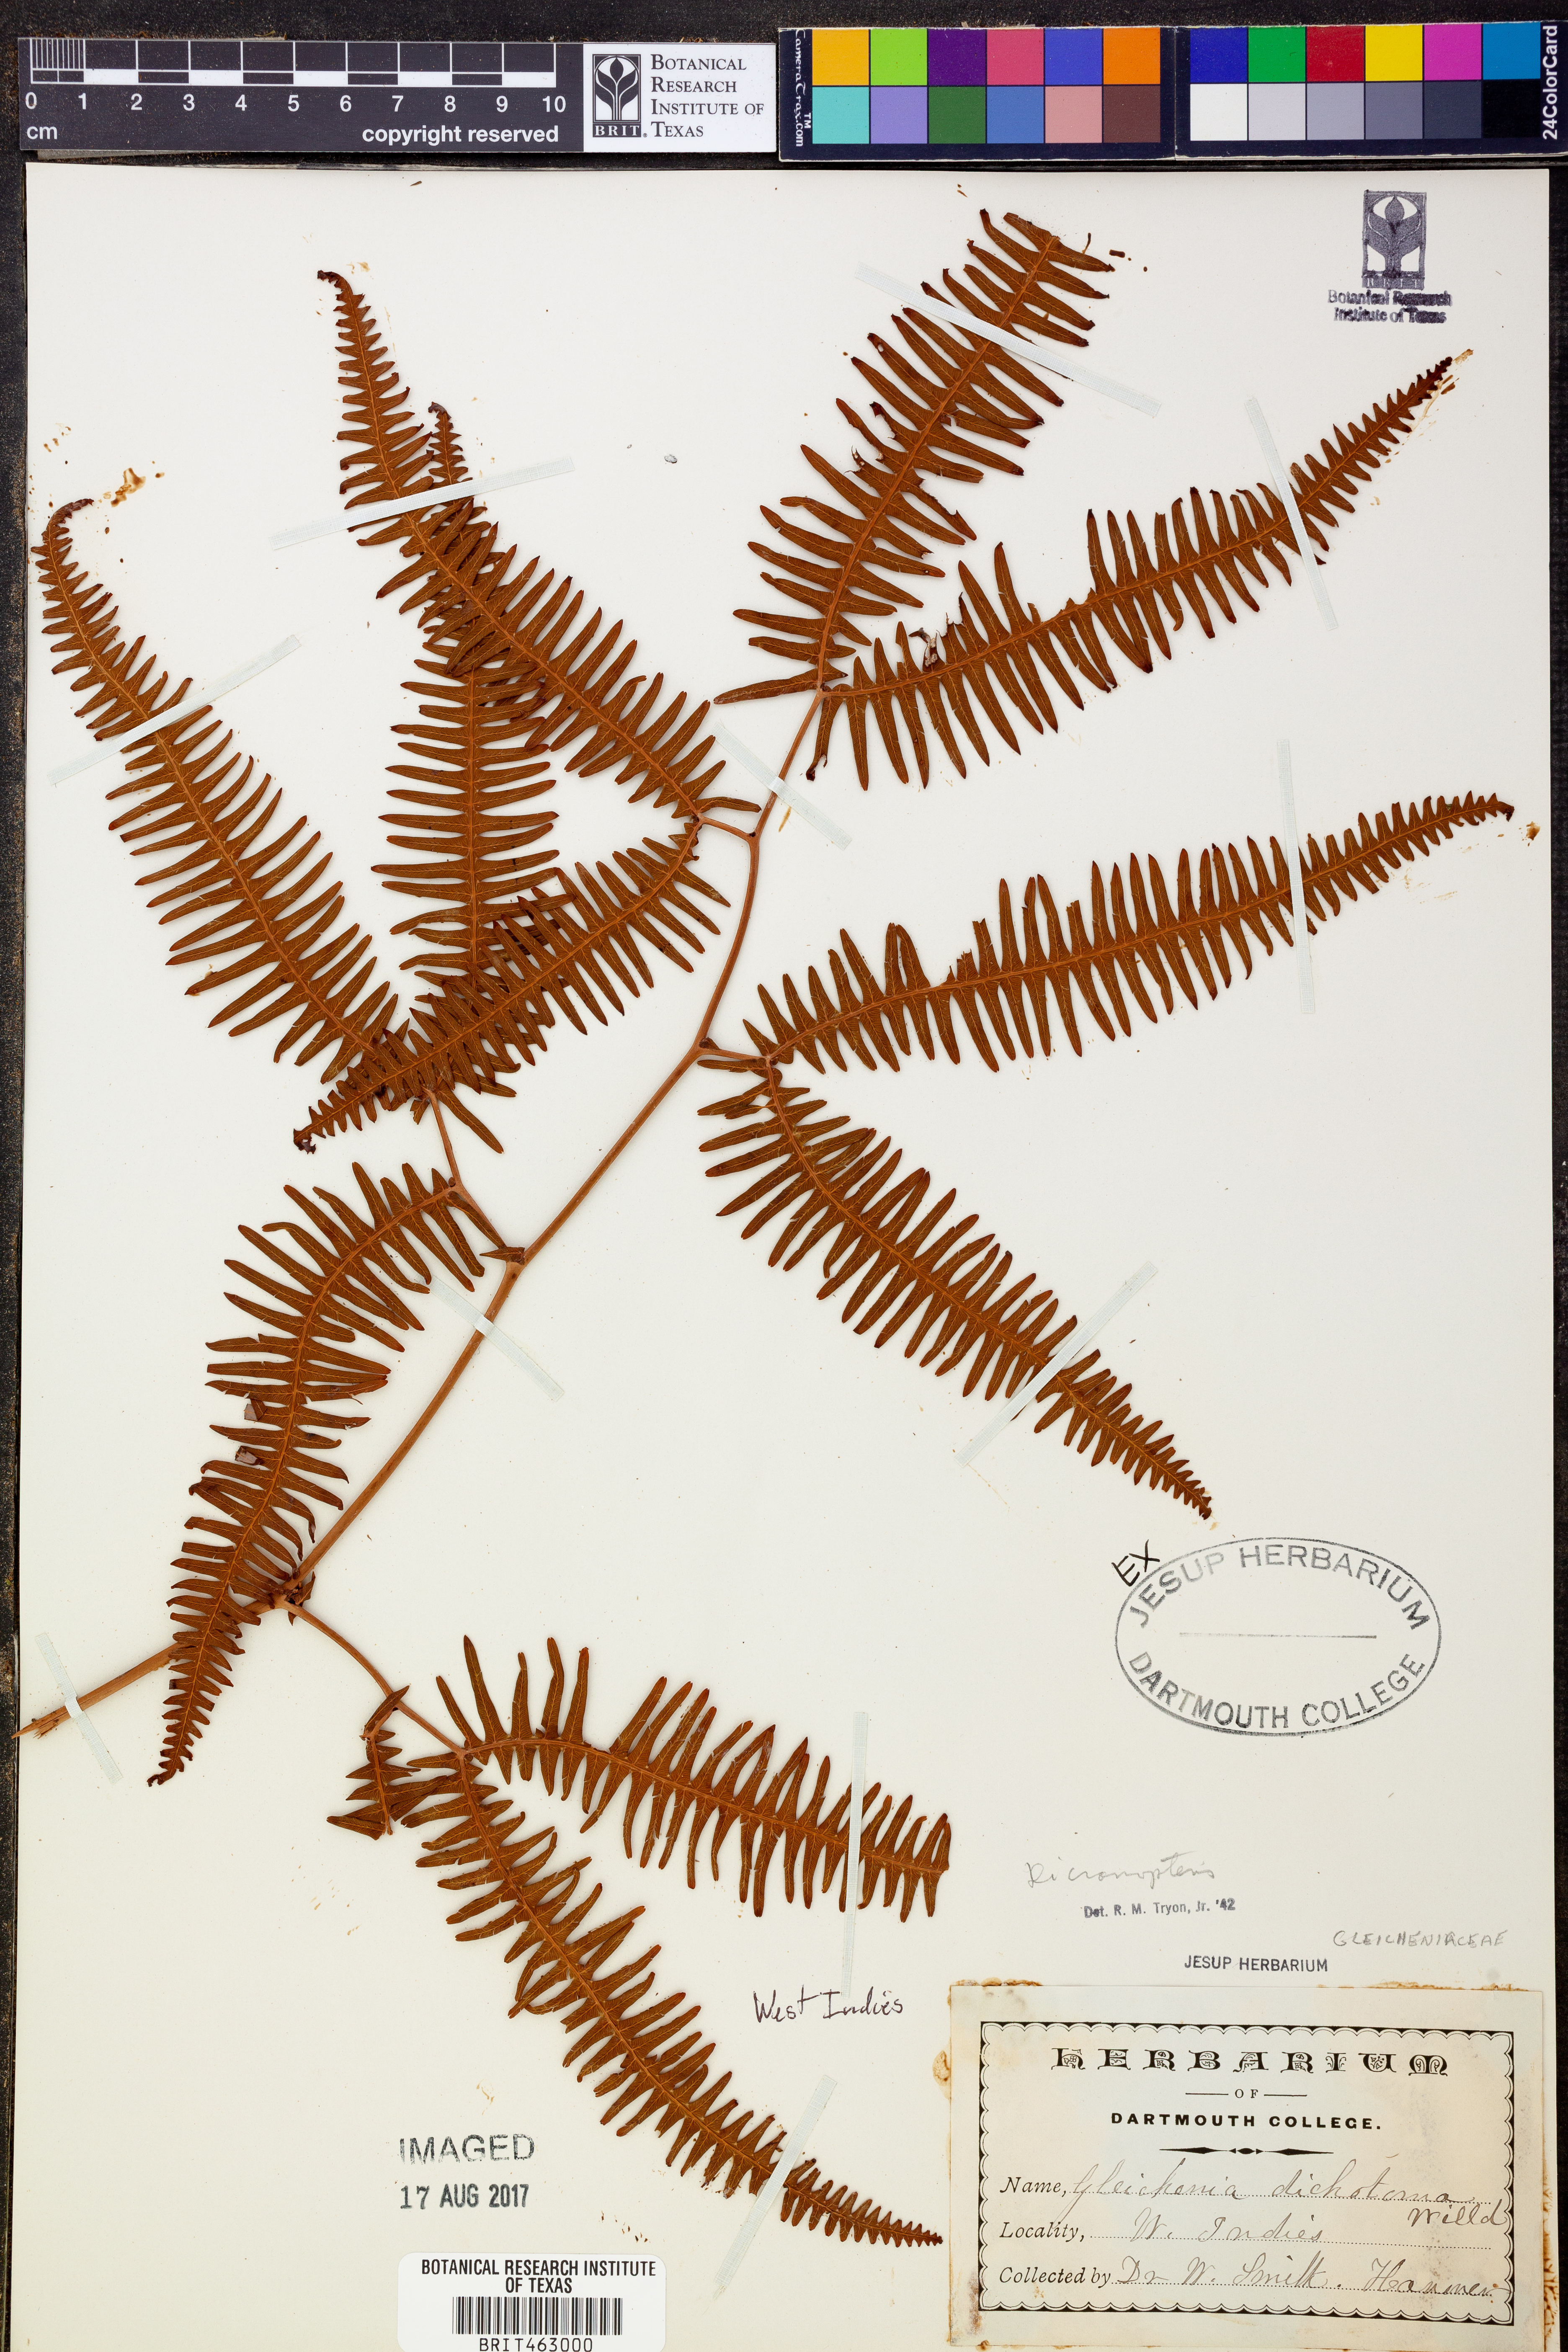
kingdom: Plantae
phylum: Tracheophyta
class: Polypodiopsida
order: Gleicheniales
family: Gleicheniaceae
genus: Dicranopteris
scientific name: Dicranopteris
